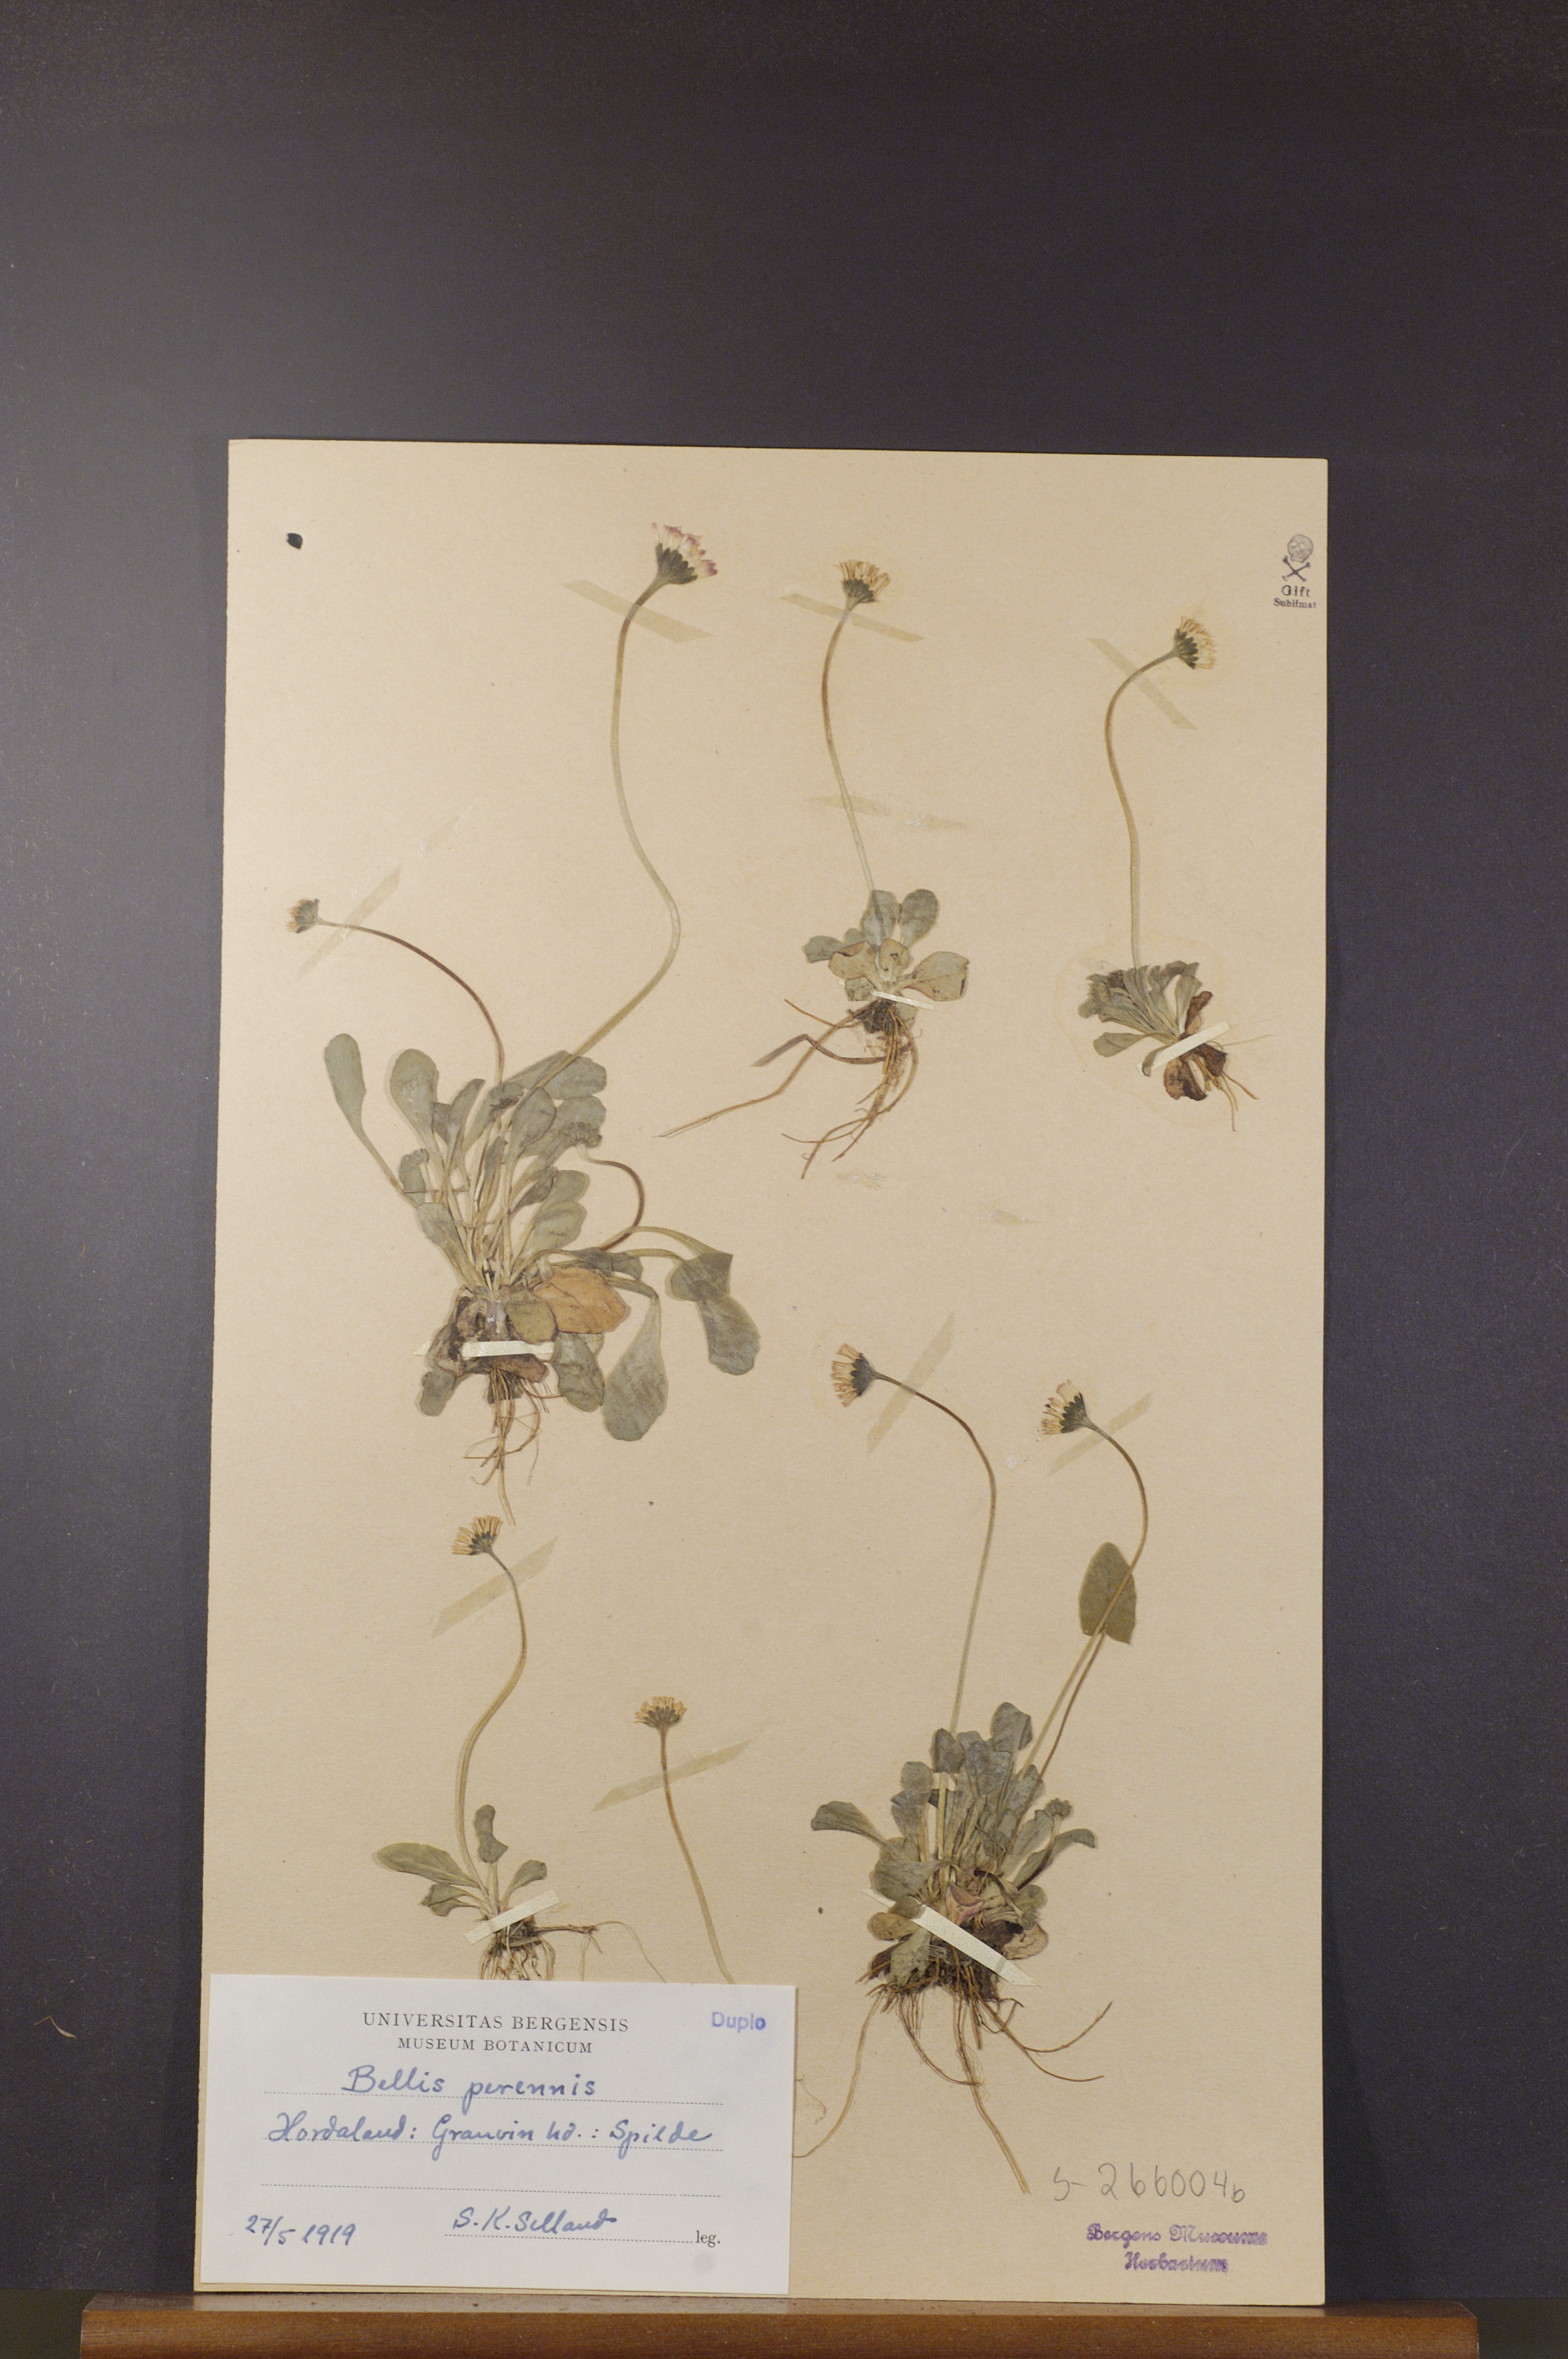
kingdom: Plantae
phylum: Tracheophyta
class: Magnoliopsida
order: Asterales
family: Asteraceae
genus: Bellis
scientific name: Bellis perennis
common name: Lawndaisy
